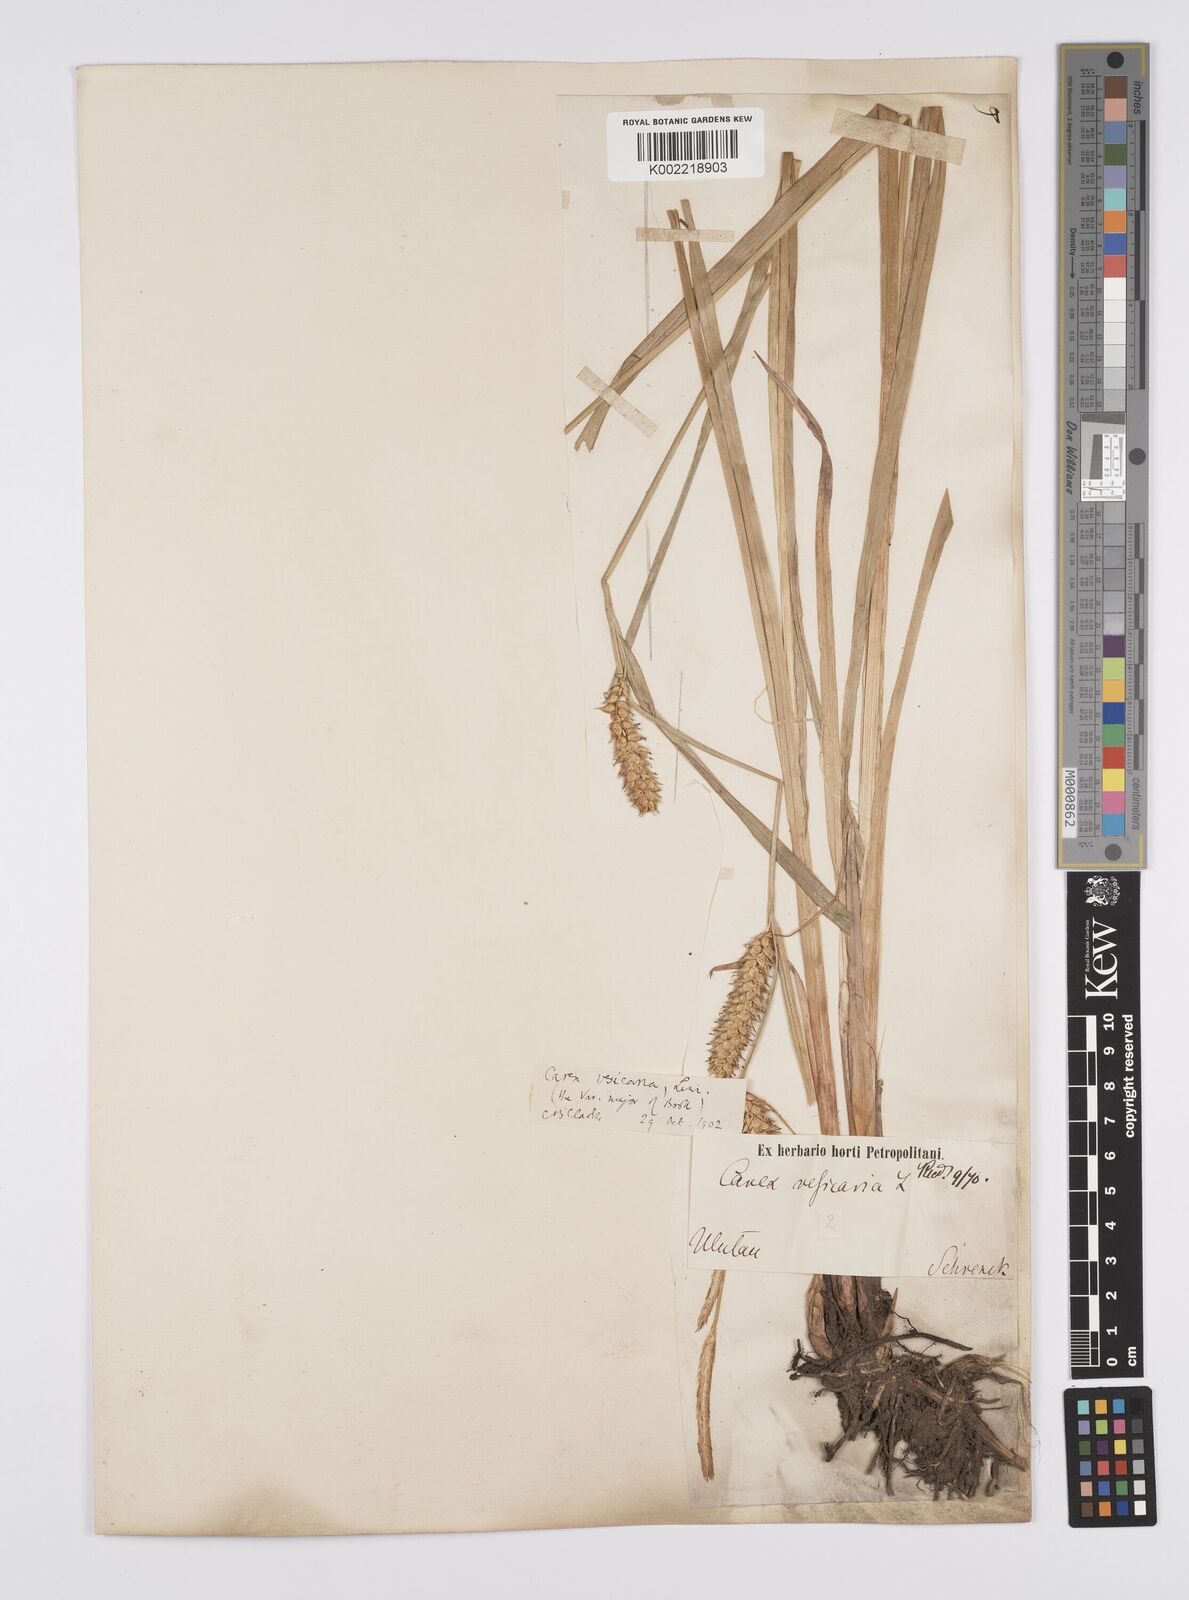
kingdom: Plantae
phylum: Tracheophyta
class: Liliopsida
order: Poales
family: Cyperaceae
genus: Carex
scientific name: Carex vesicaria
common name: Bladder-sedge
